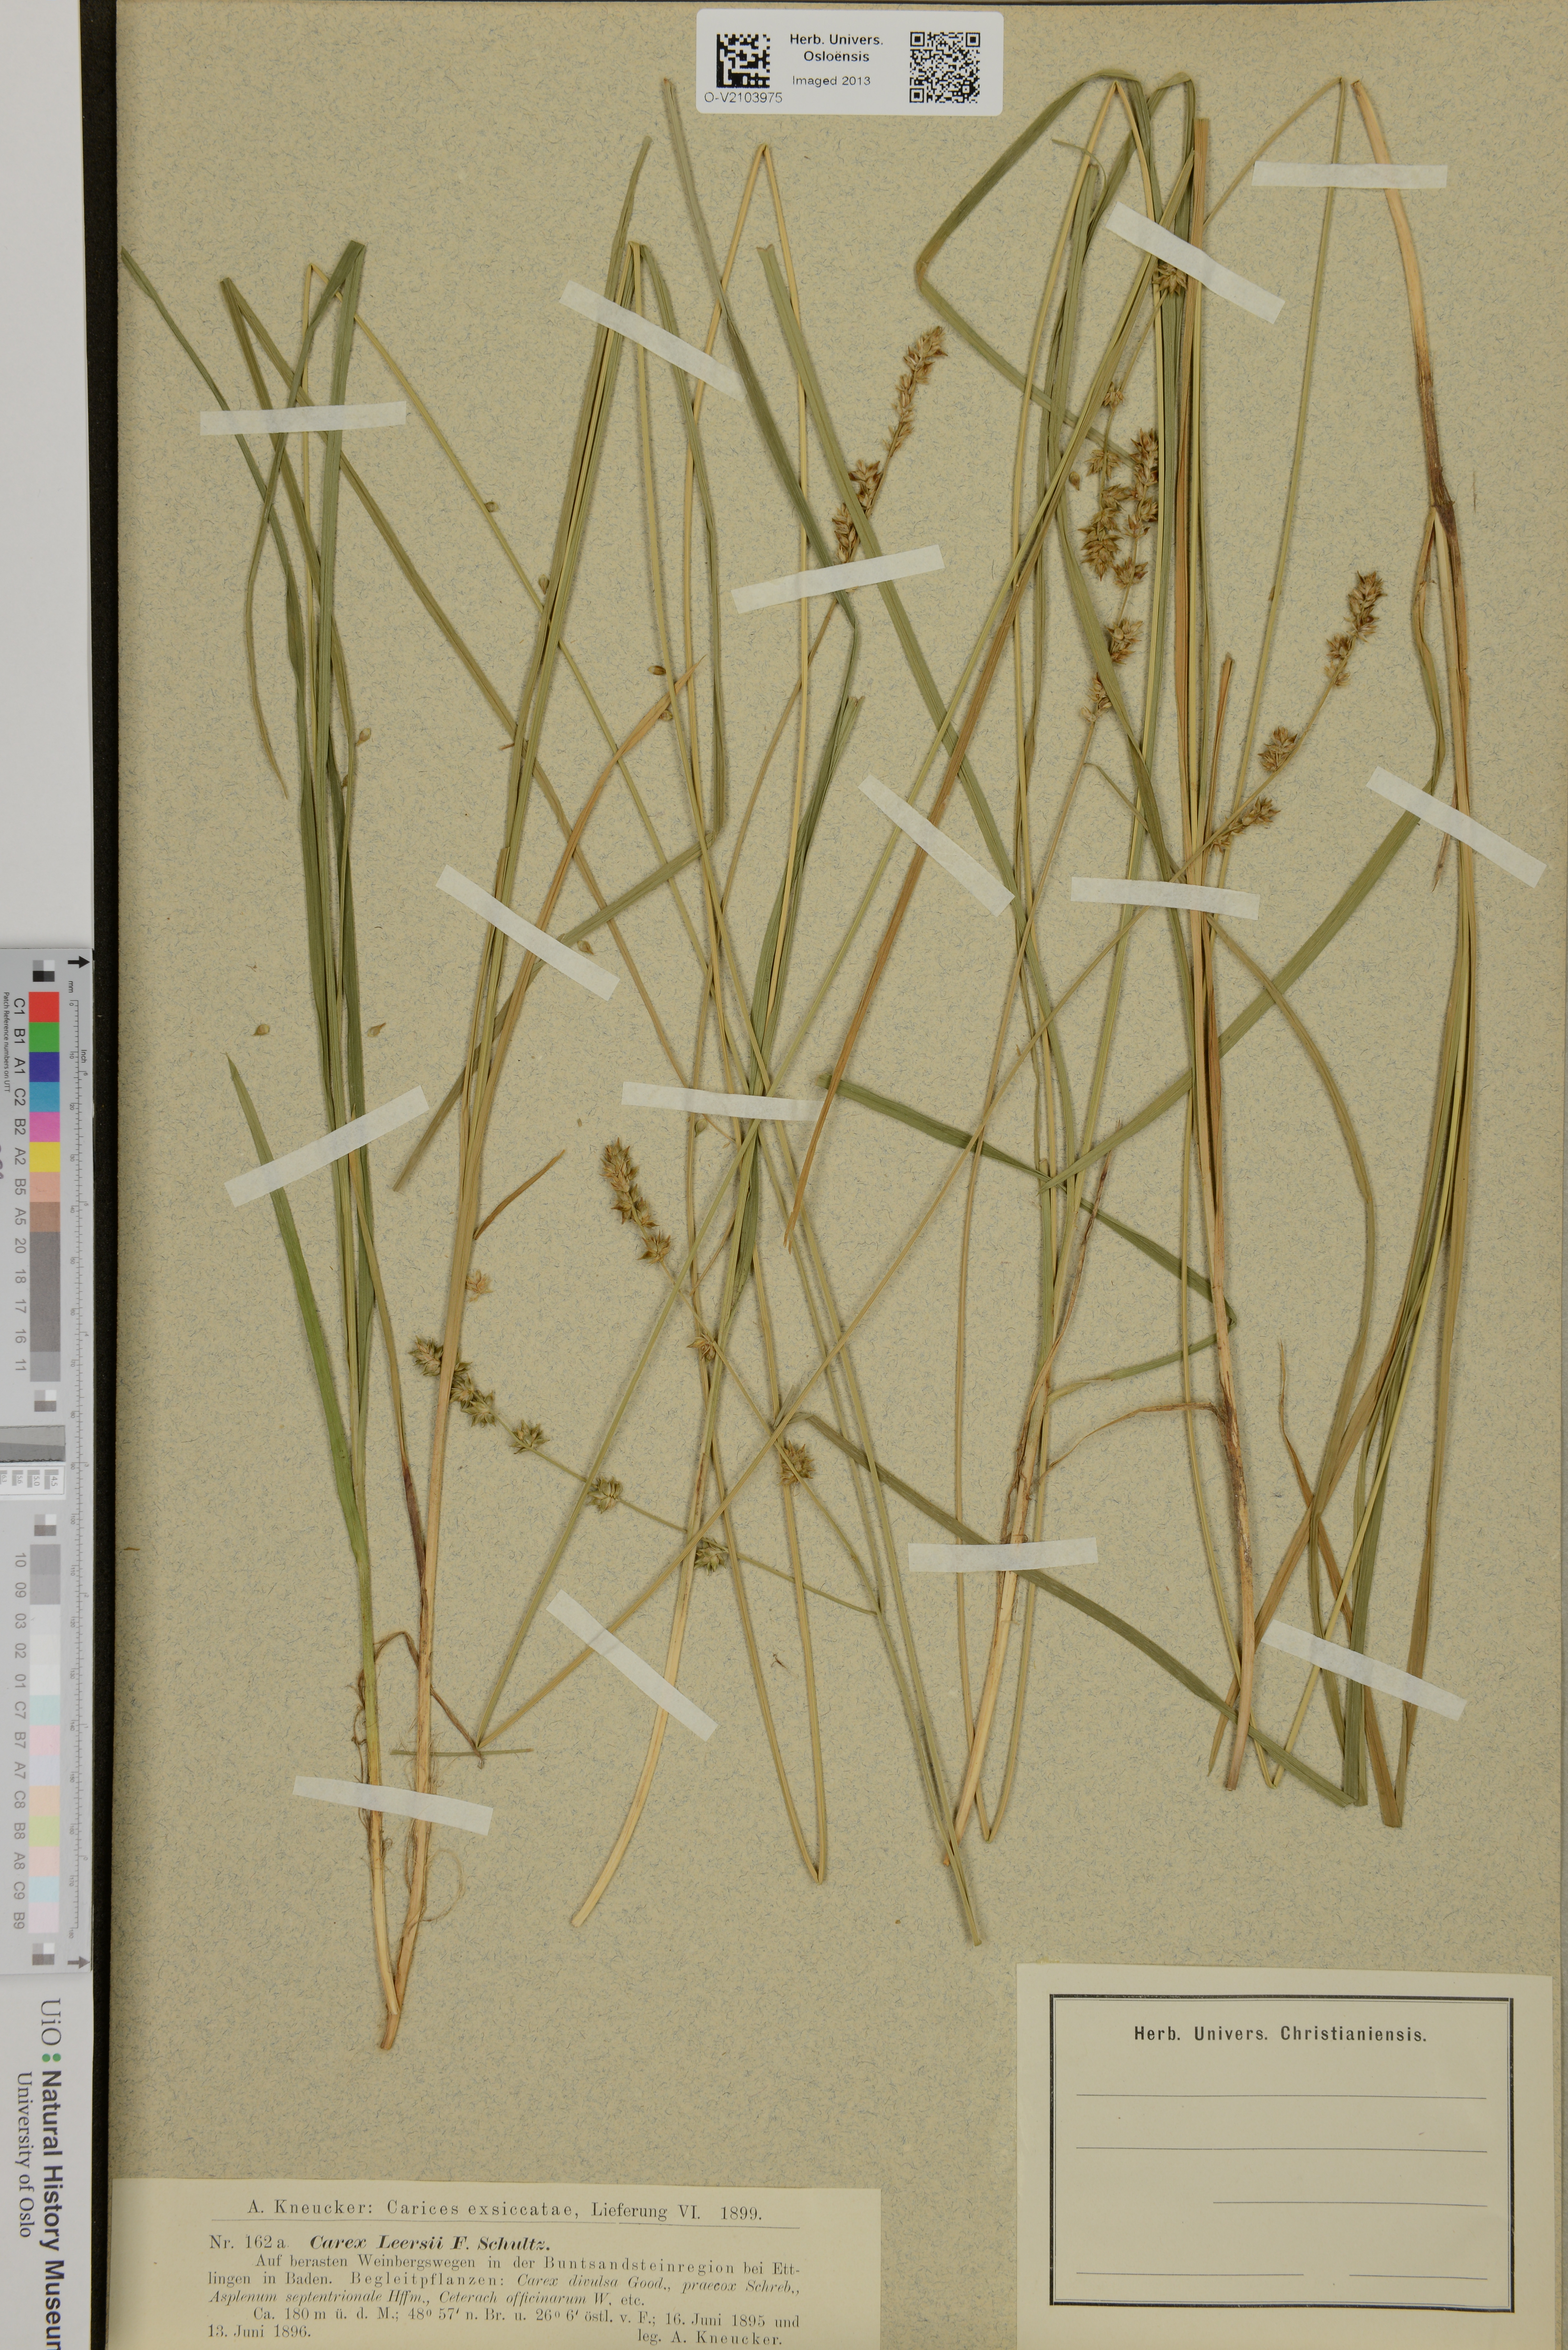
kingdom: Plantae
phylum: Tracheophyta
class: Liliopsida
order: Poales
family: Cyperaceae
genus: Carex
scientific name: Carex leersii
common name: Leers' sedge
